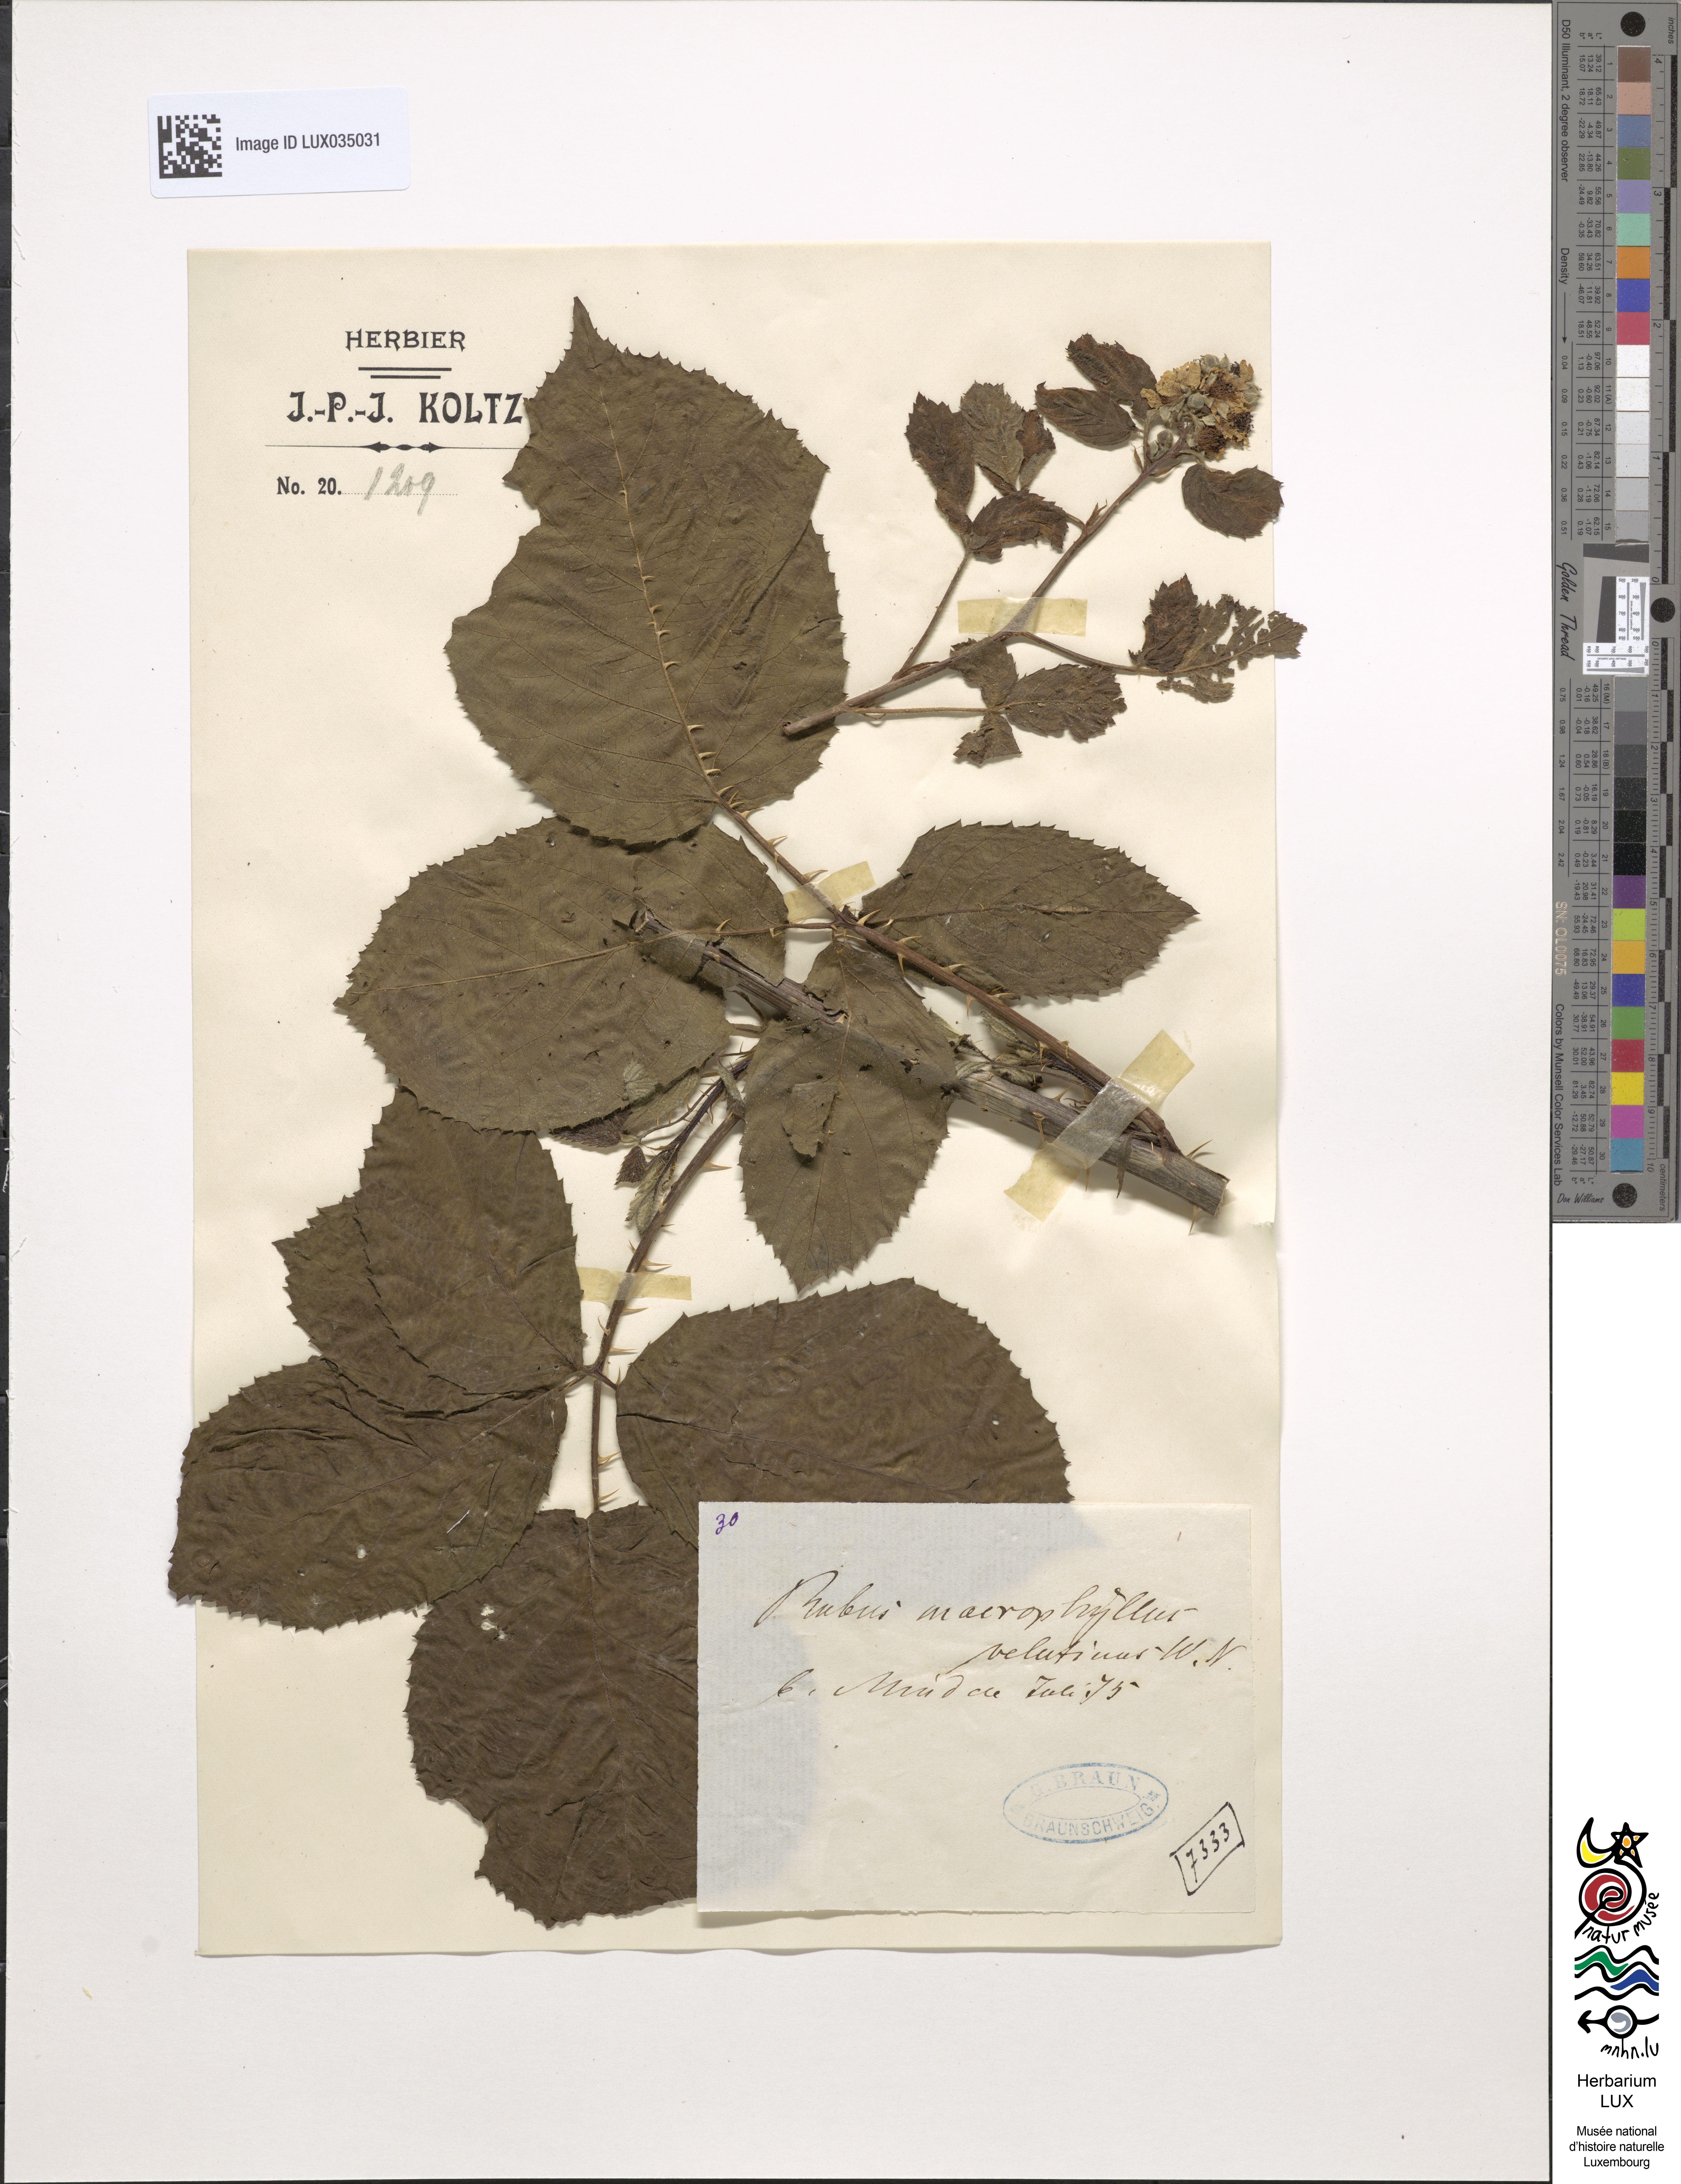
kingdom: Plantae
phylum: Tracheophyta
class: Magnoliopsida
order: Rosales
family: Rosaceae
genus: Rubus
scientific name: Rubus macrophyllus
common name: Largeleaf blackberry
